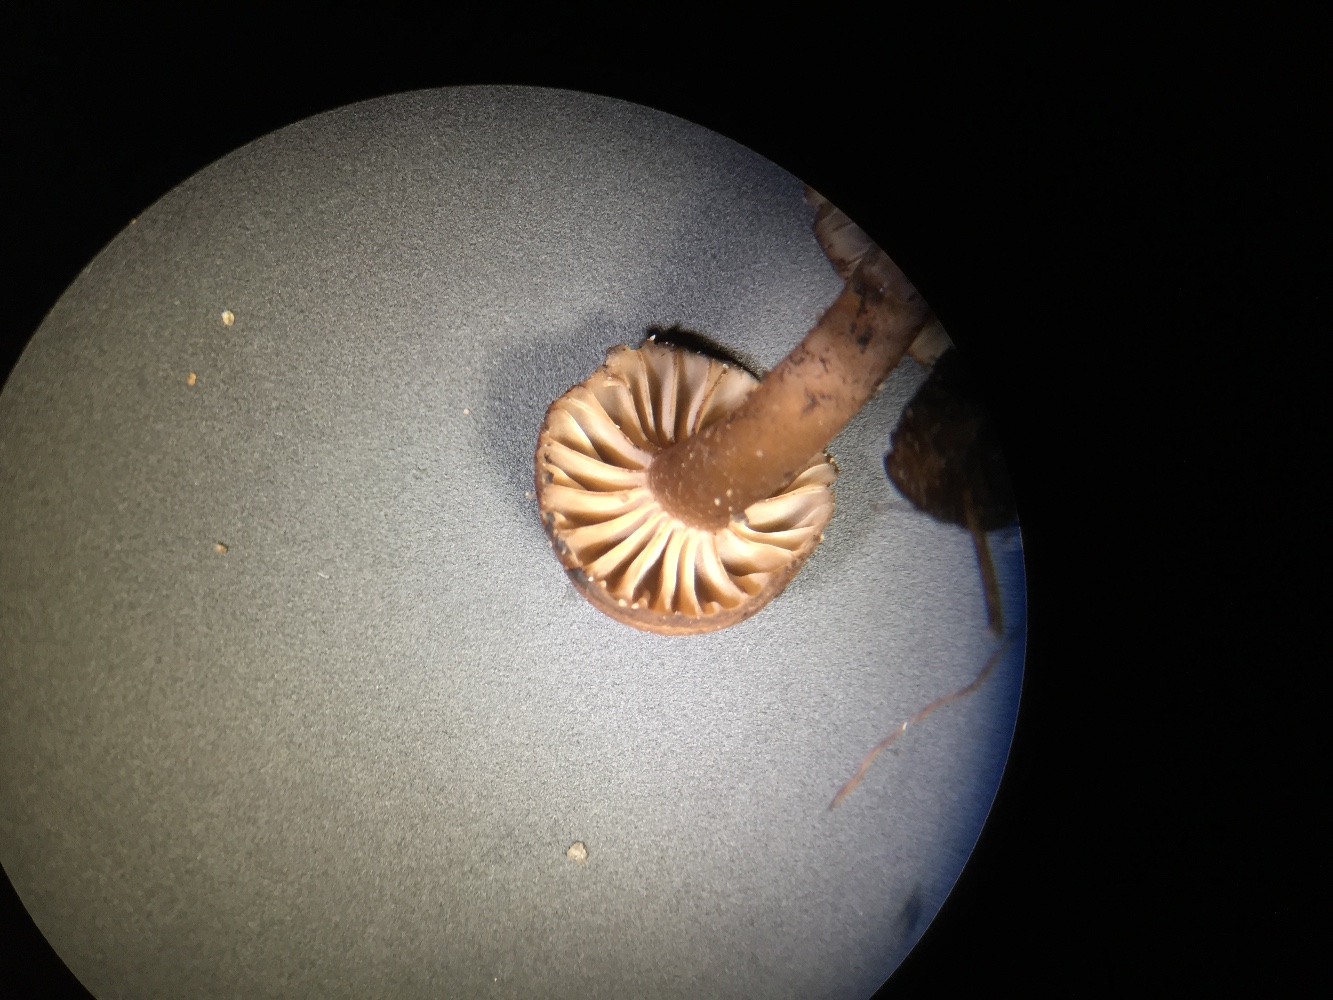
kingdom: Fungi
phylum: Basidiomycota
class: Agaricomycetes
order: Agaricales
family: Clavariaceae
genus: Hodophilus
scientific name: Hodophilus foetens
